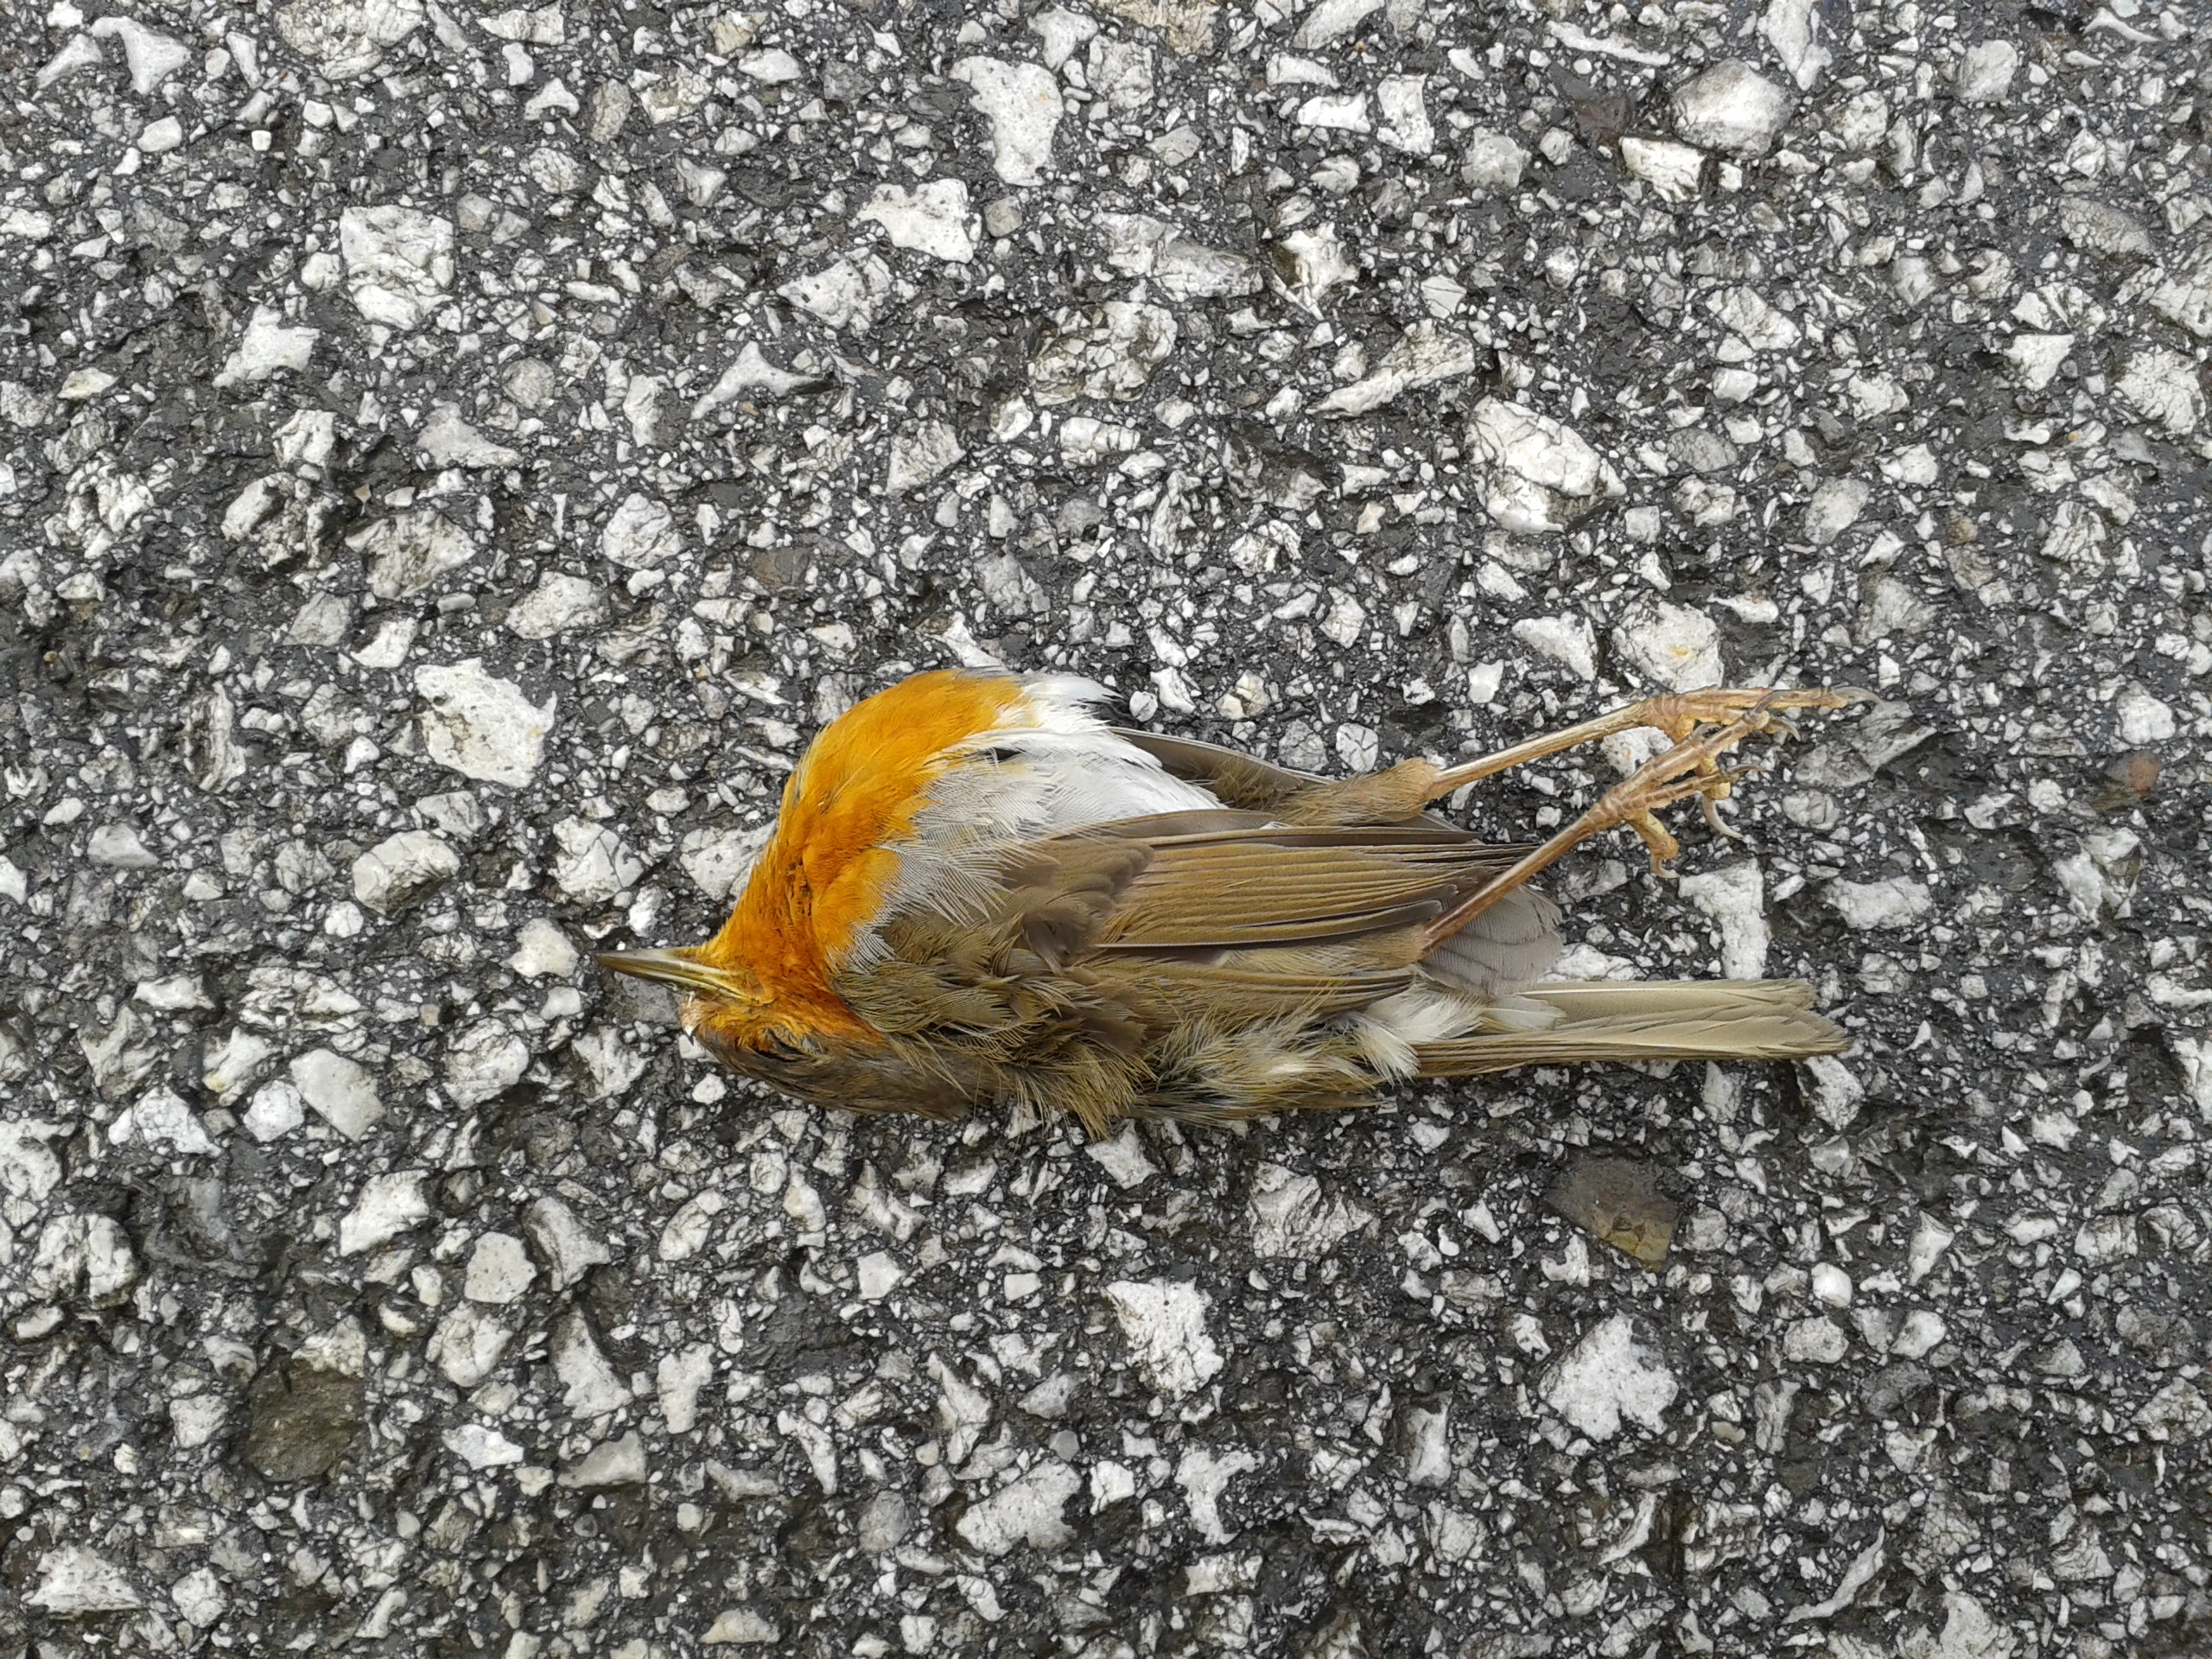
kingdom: Animalia
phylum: Chordata
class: Aves
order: Passeriformes
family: Muscicapidae
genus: Erithacus
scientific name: Erithacus rubecula
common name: European robin
